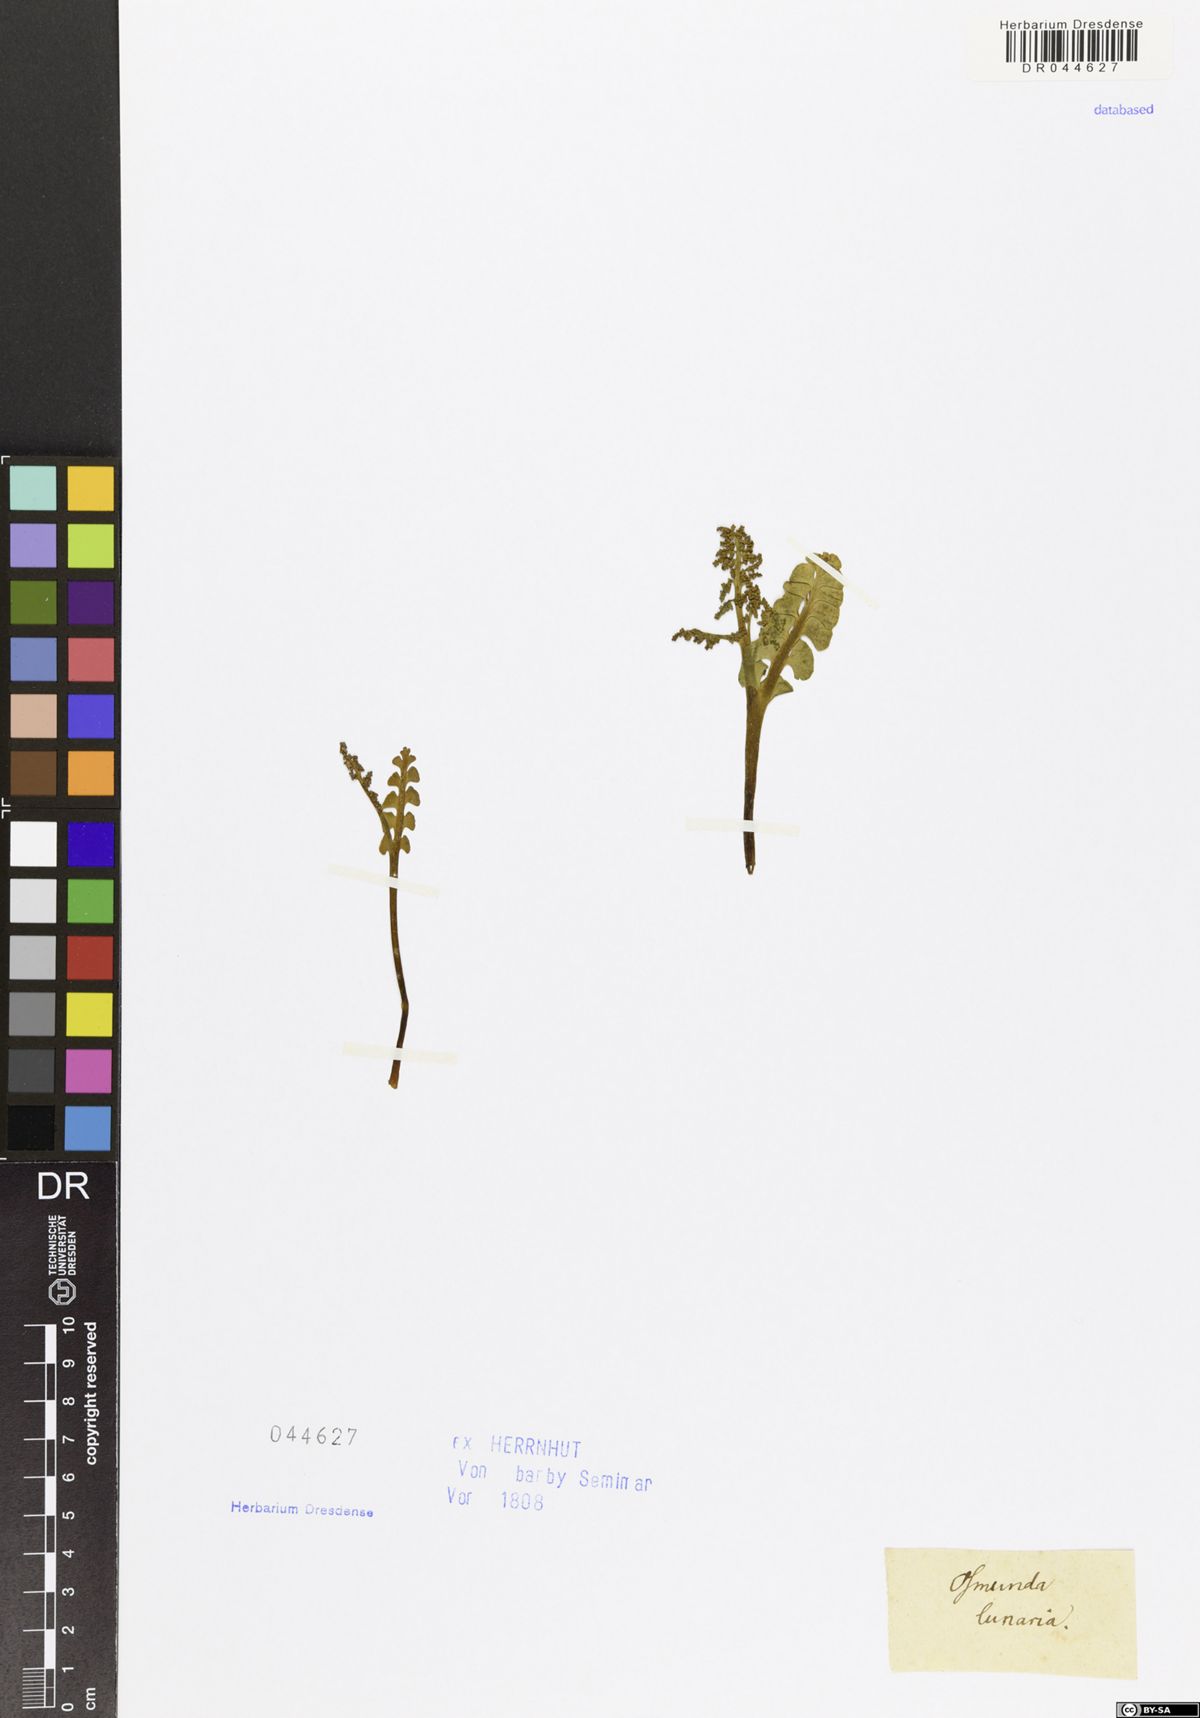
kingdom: Plantae
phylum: Tracheophyta
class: Polypodiopsida
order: Ophioglossales
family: Ophioglossaceae
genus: Botrychium
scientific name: Botrychium lunaria
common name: Moonwort
